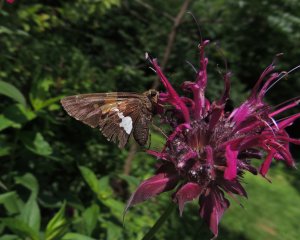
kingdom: Animalia
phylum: Arthropoda
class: Insecta
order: Lepidoptera
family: Hesperiidae
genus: Epargyreus
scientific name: Epargyreus clarus
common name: Silver-spotted Skipper
